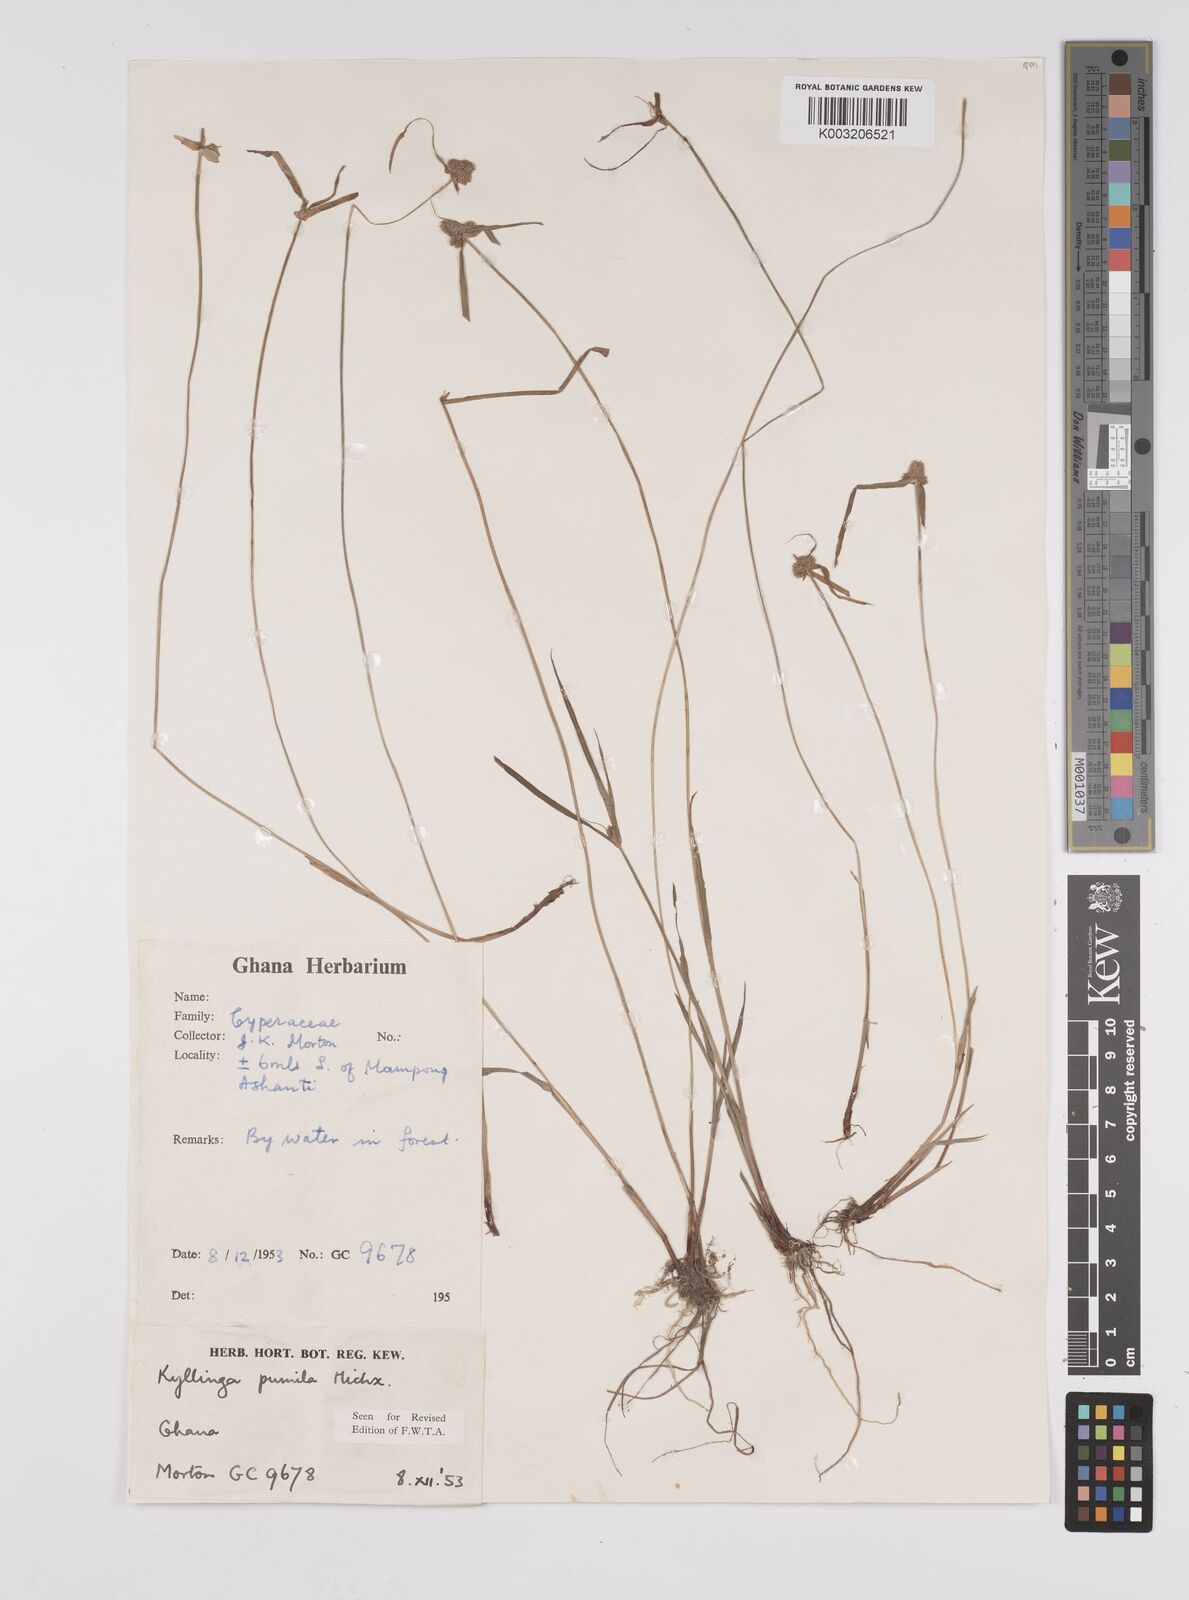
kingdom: Plantae
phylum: Tracheophyta
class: Liliopsida
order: Poales
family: Cyperaceae
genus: Cyperus
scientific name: Cyperus
